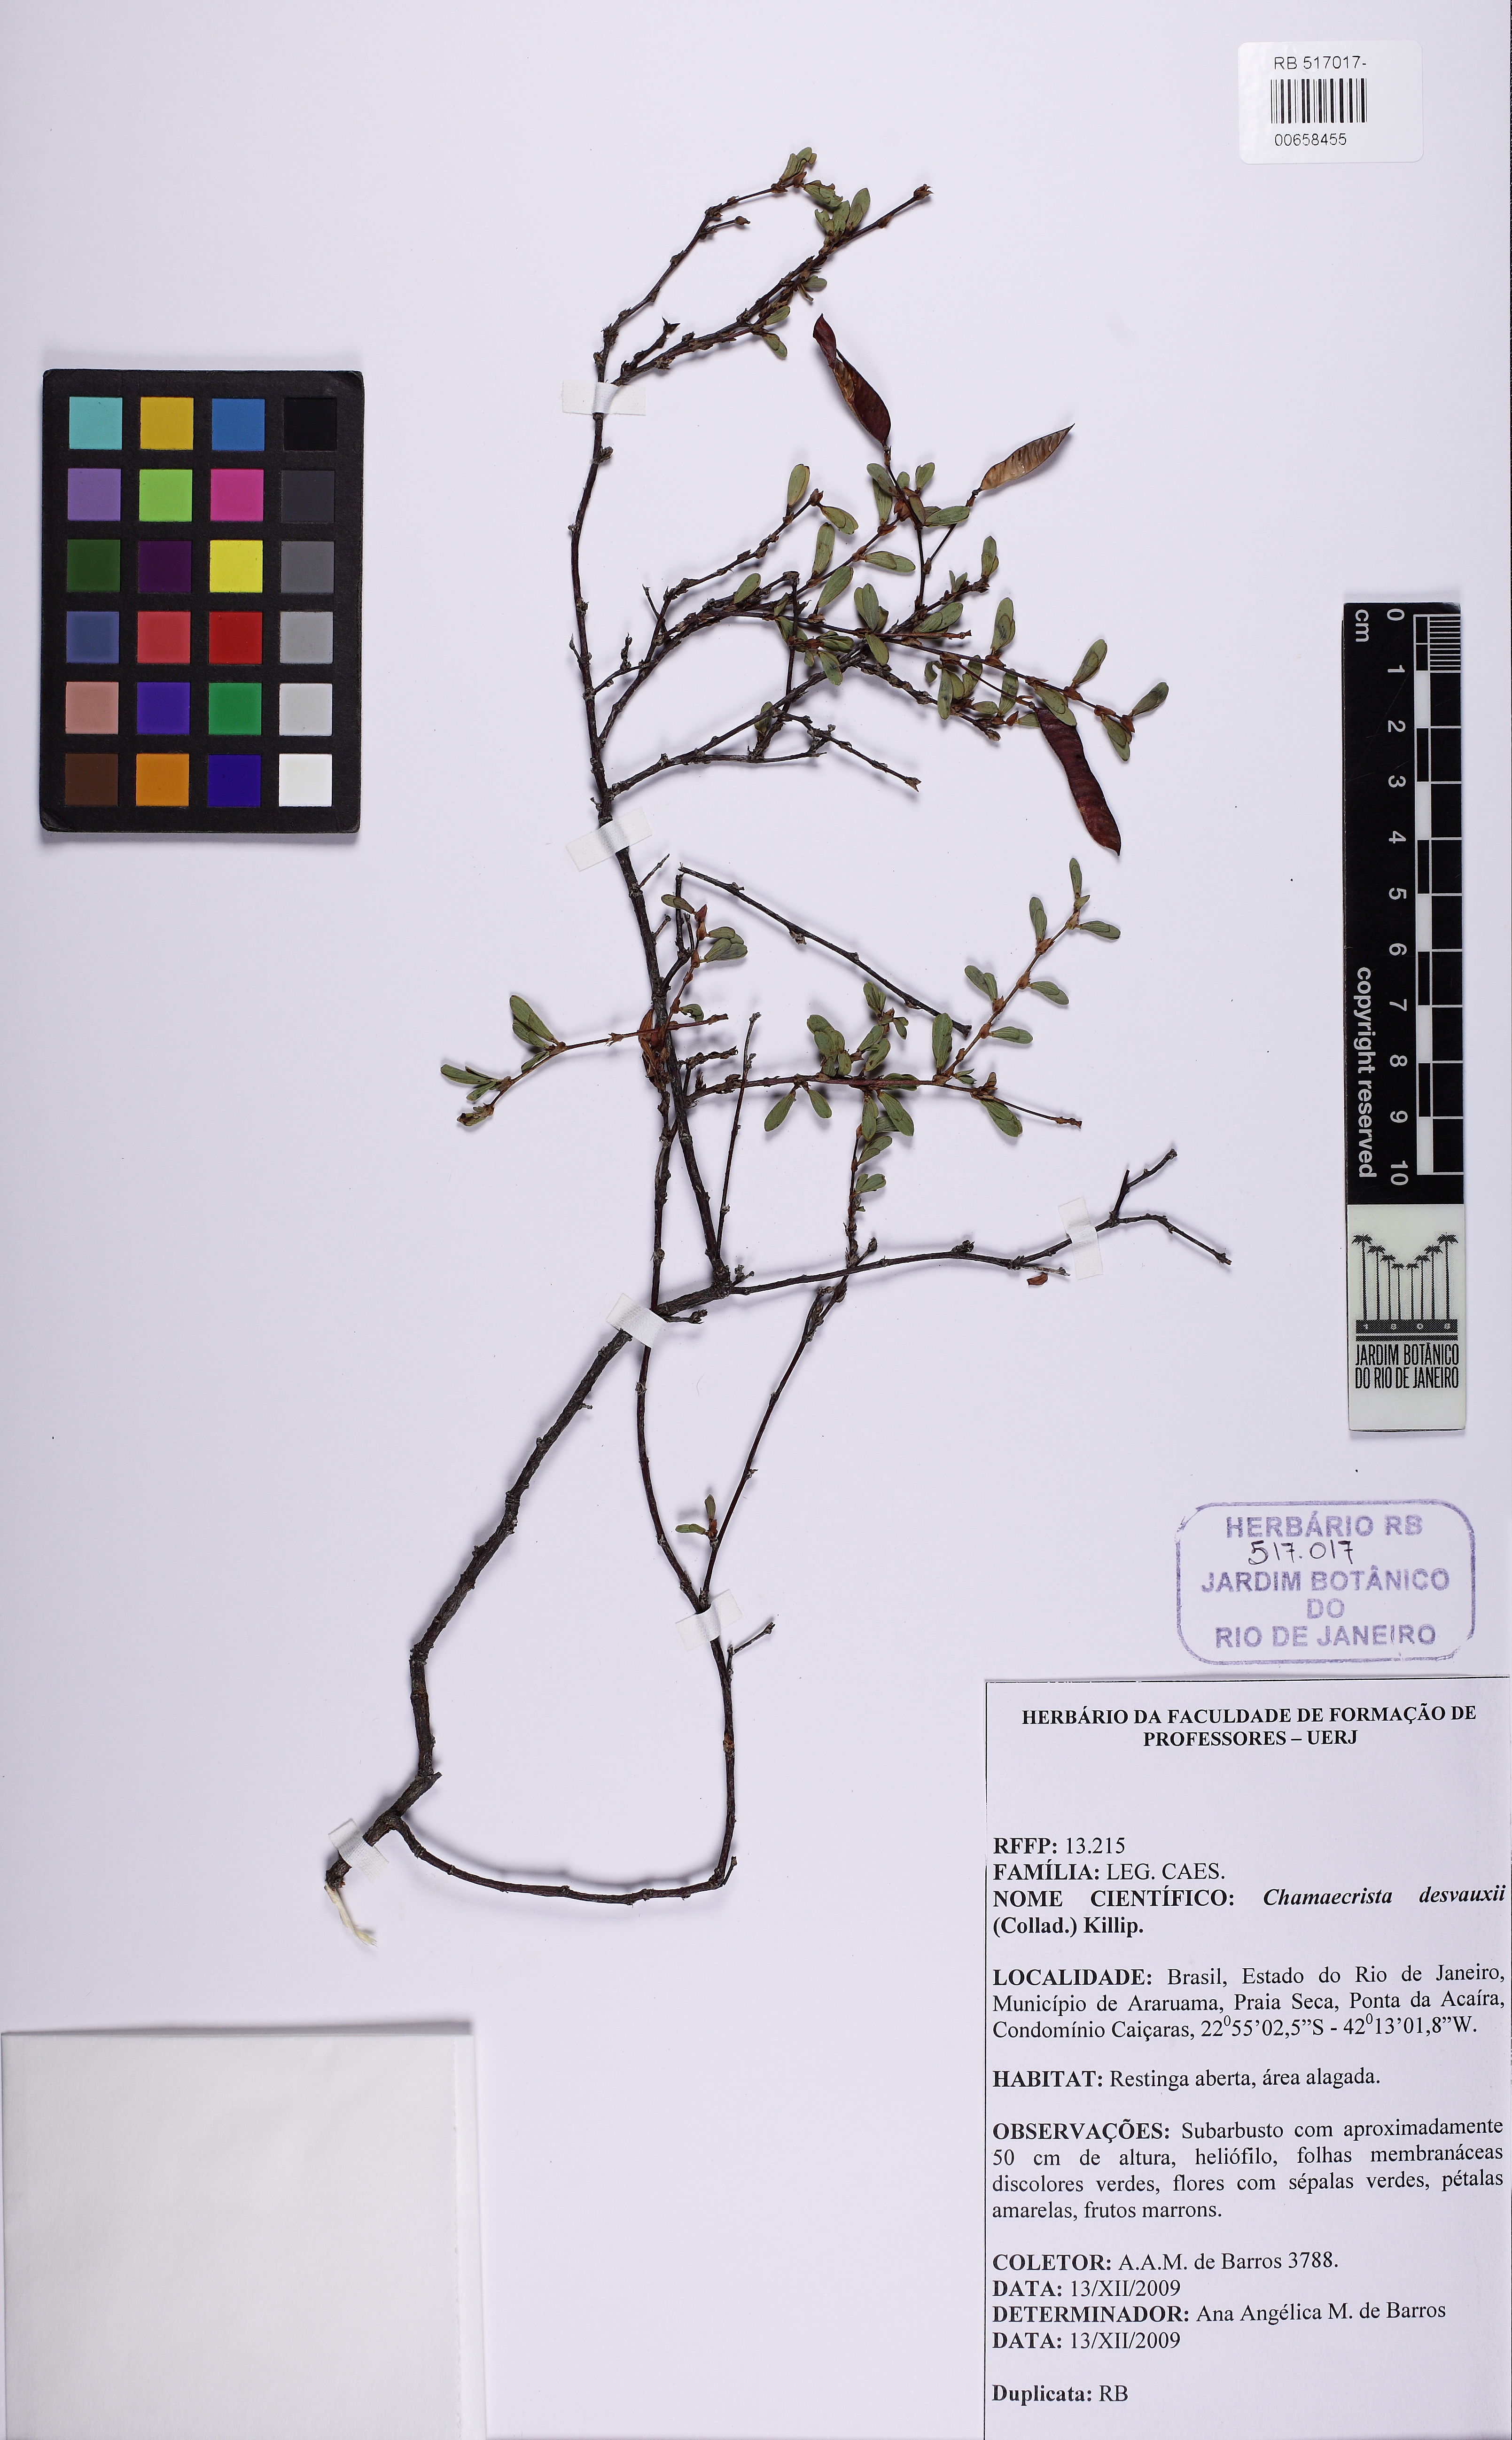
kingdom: Plantae
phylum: Tracheophyta
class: Magnoliopsida
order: Fabales
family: Fabaceae
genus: Chamaecrista
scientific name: Chamaecrista desvauxii
